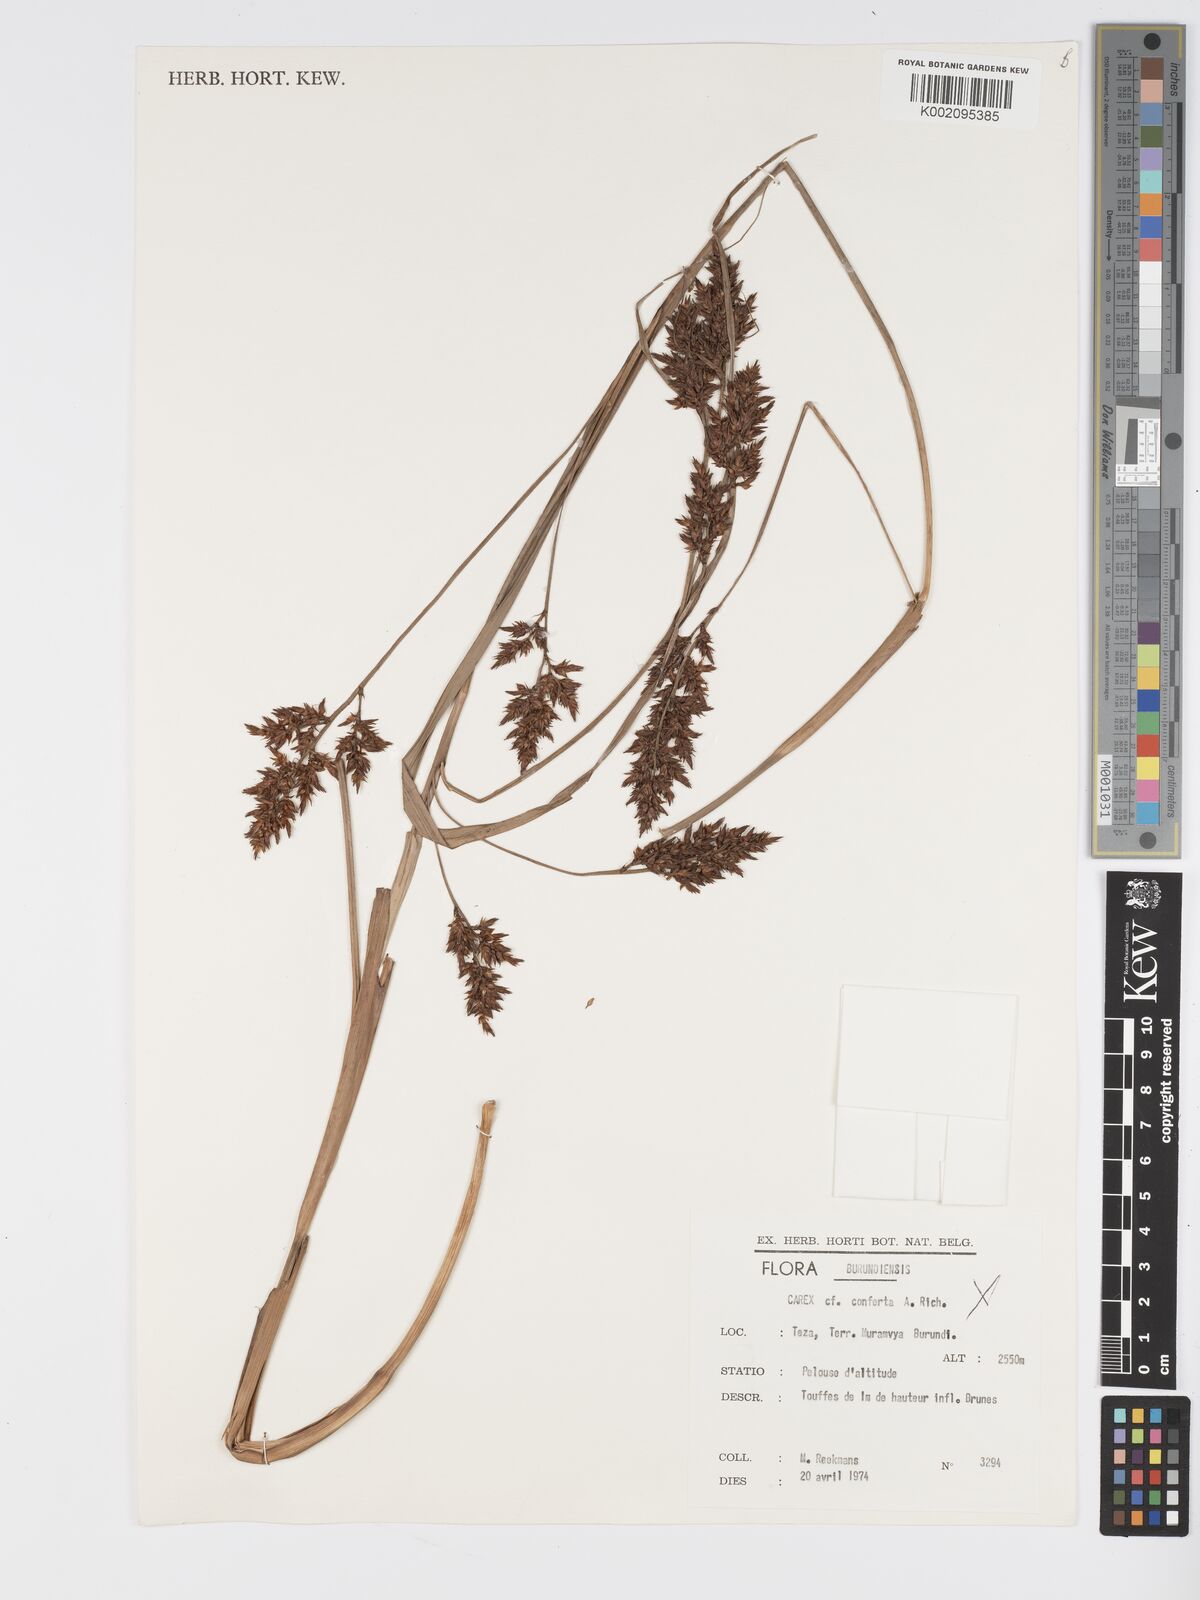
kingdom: Plantae
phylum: Tracheophyta
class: Liliopsida
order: Poales
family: Cyperaceae
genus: Carex
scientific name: Carex macrophyllidion
